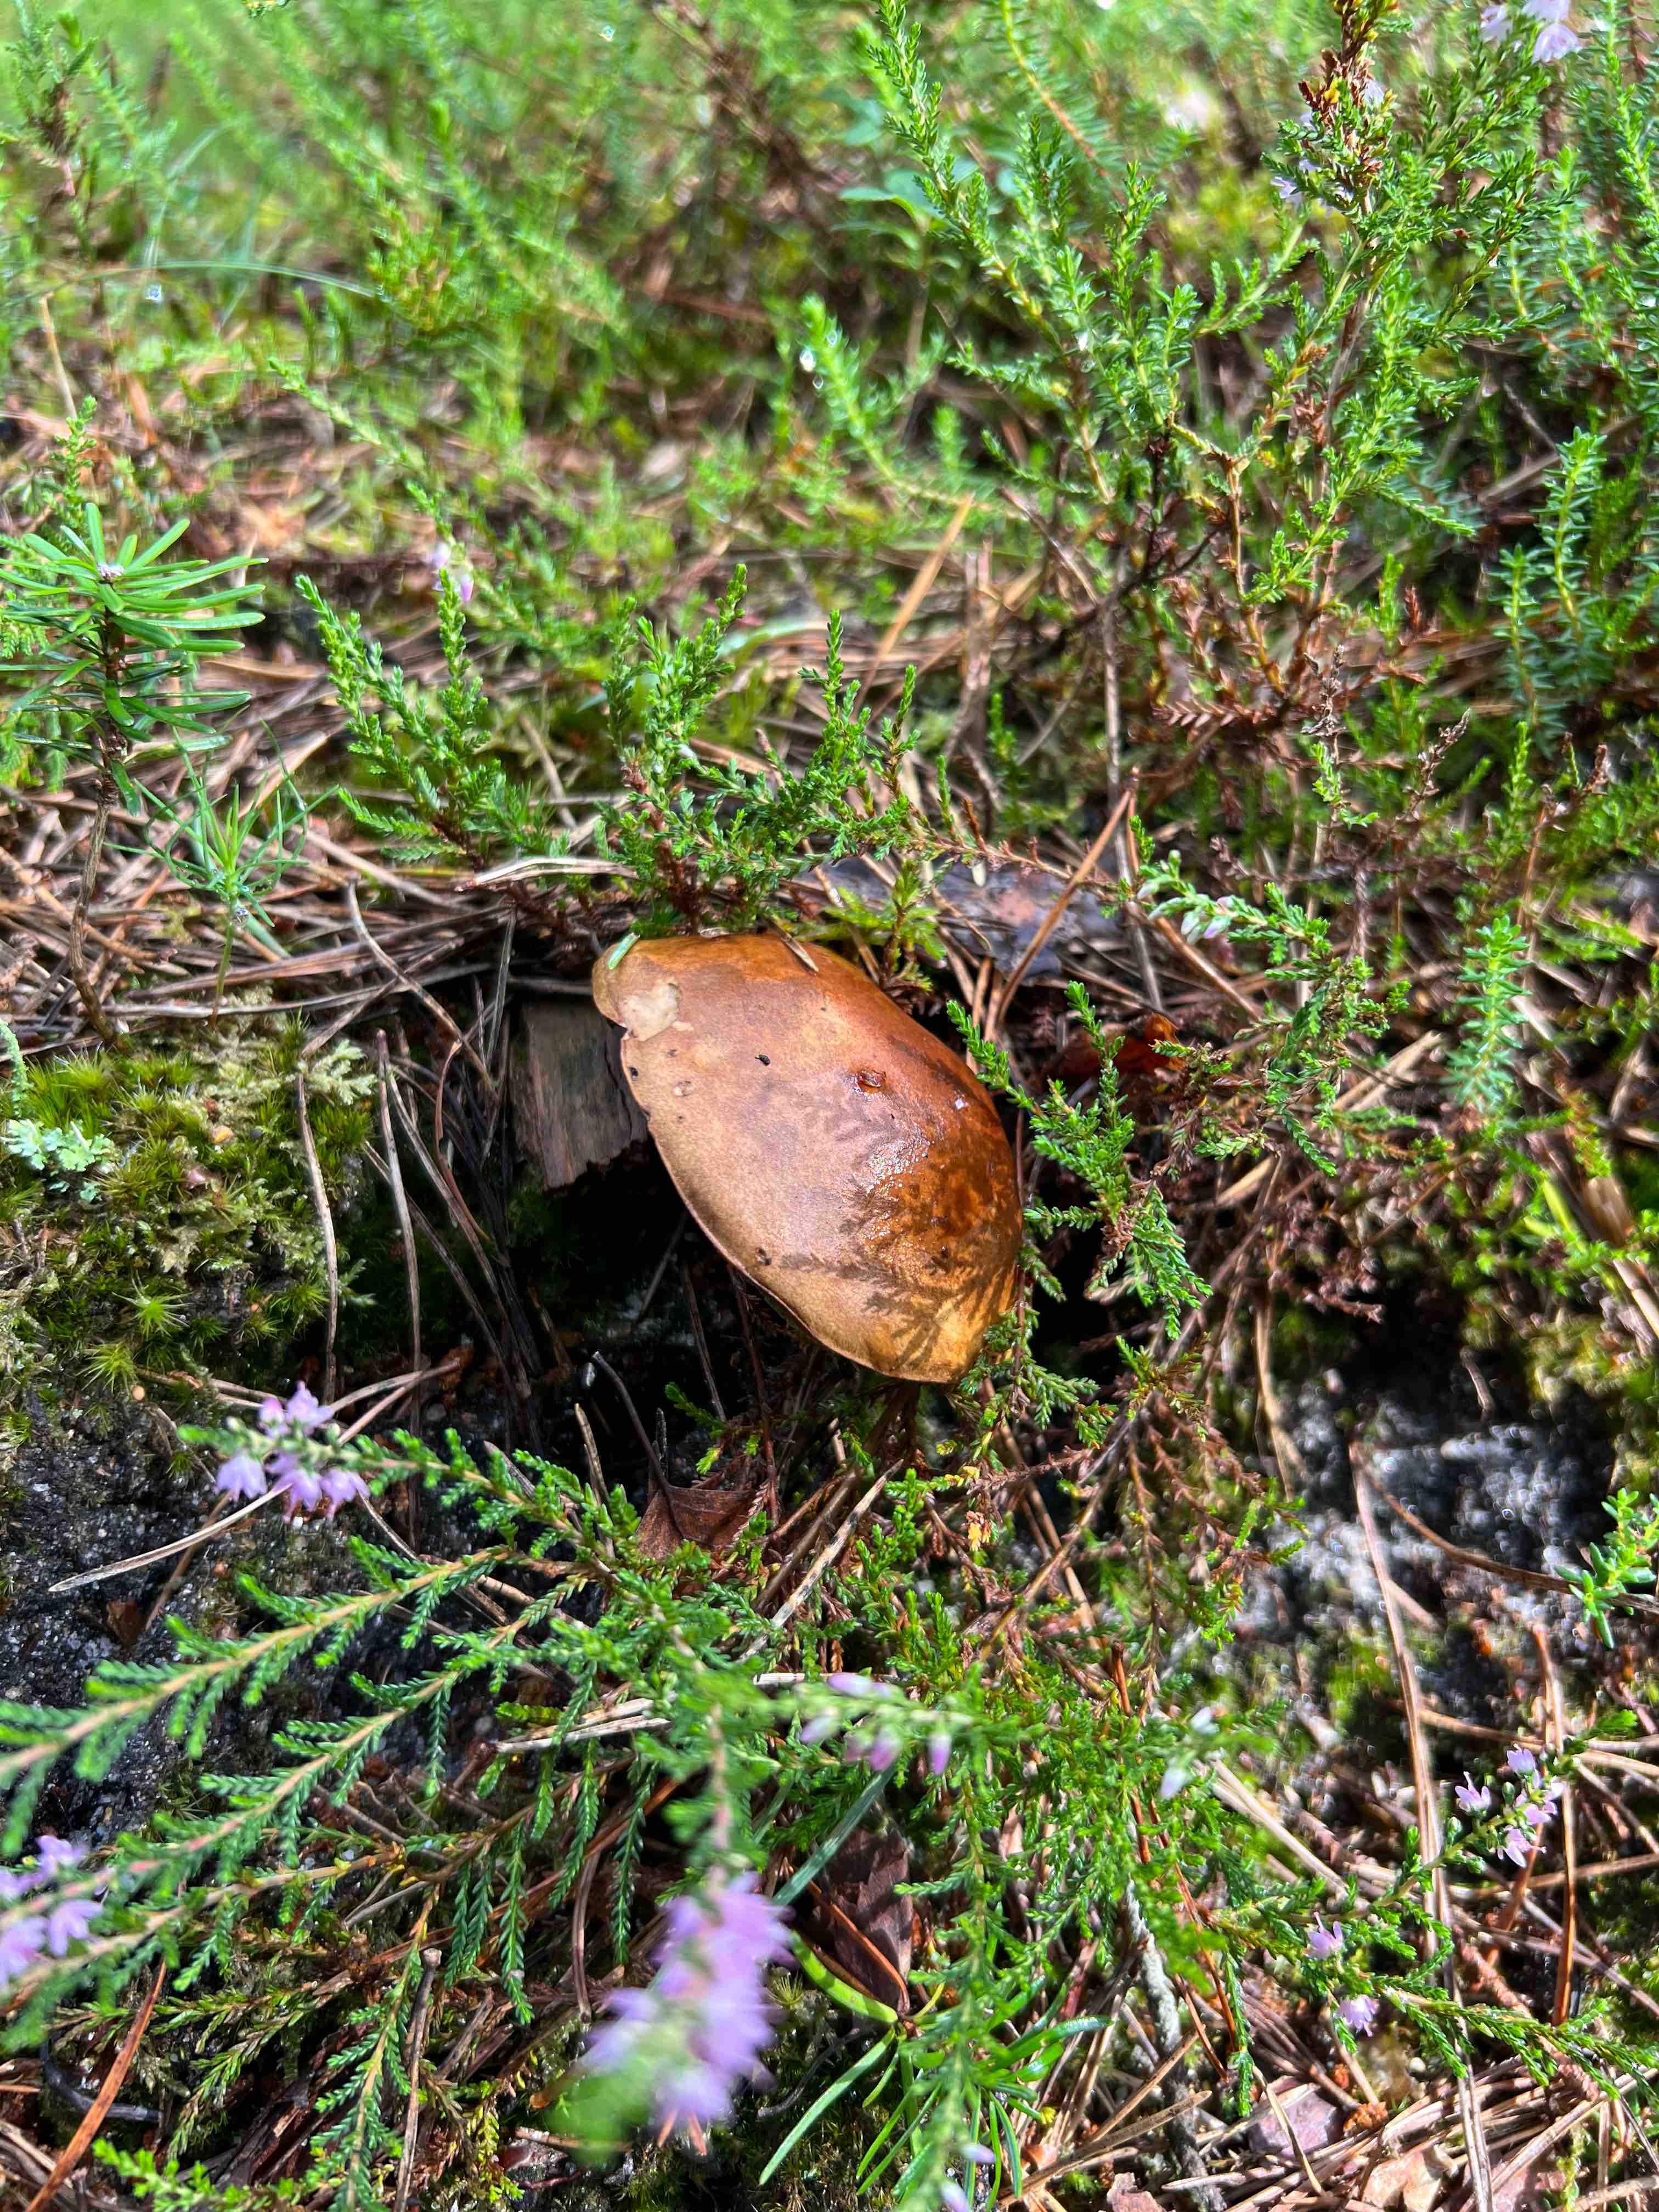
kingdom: Fungi
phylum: Basidiomycota
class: Agaricomycetes
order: Boletales
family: Boletaceae
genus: Imleria
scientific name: Imleria badia
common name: brunstokket rørhat
